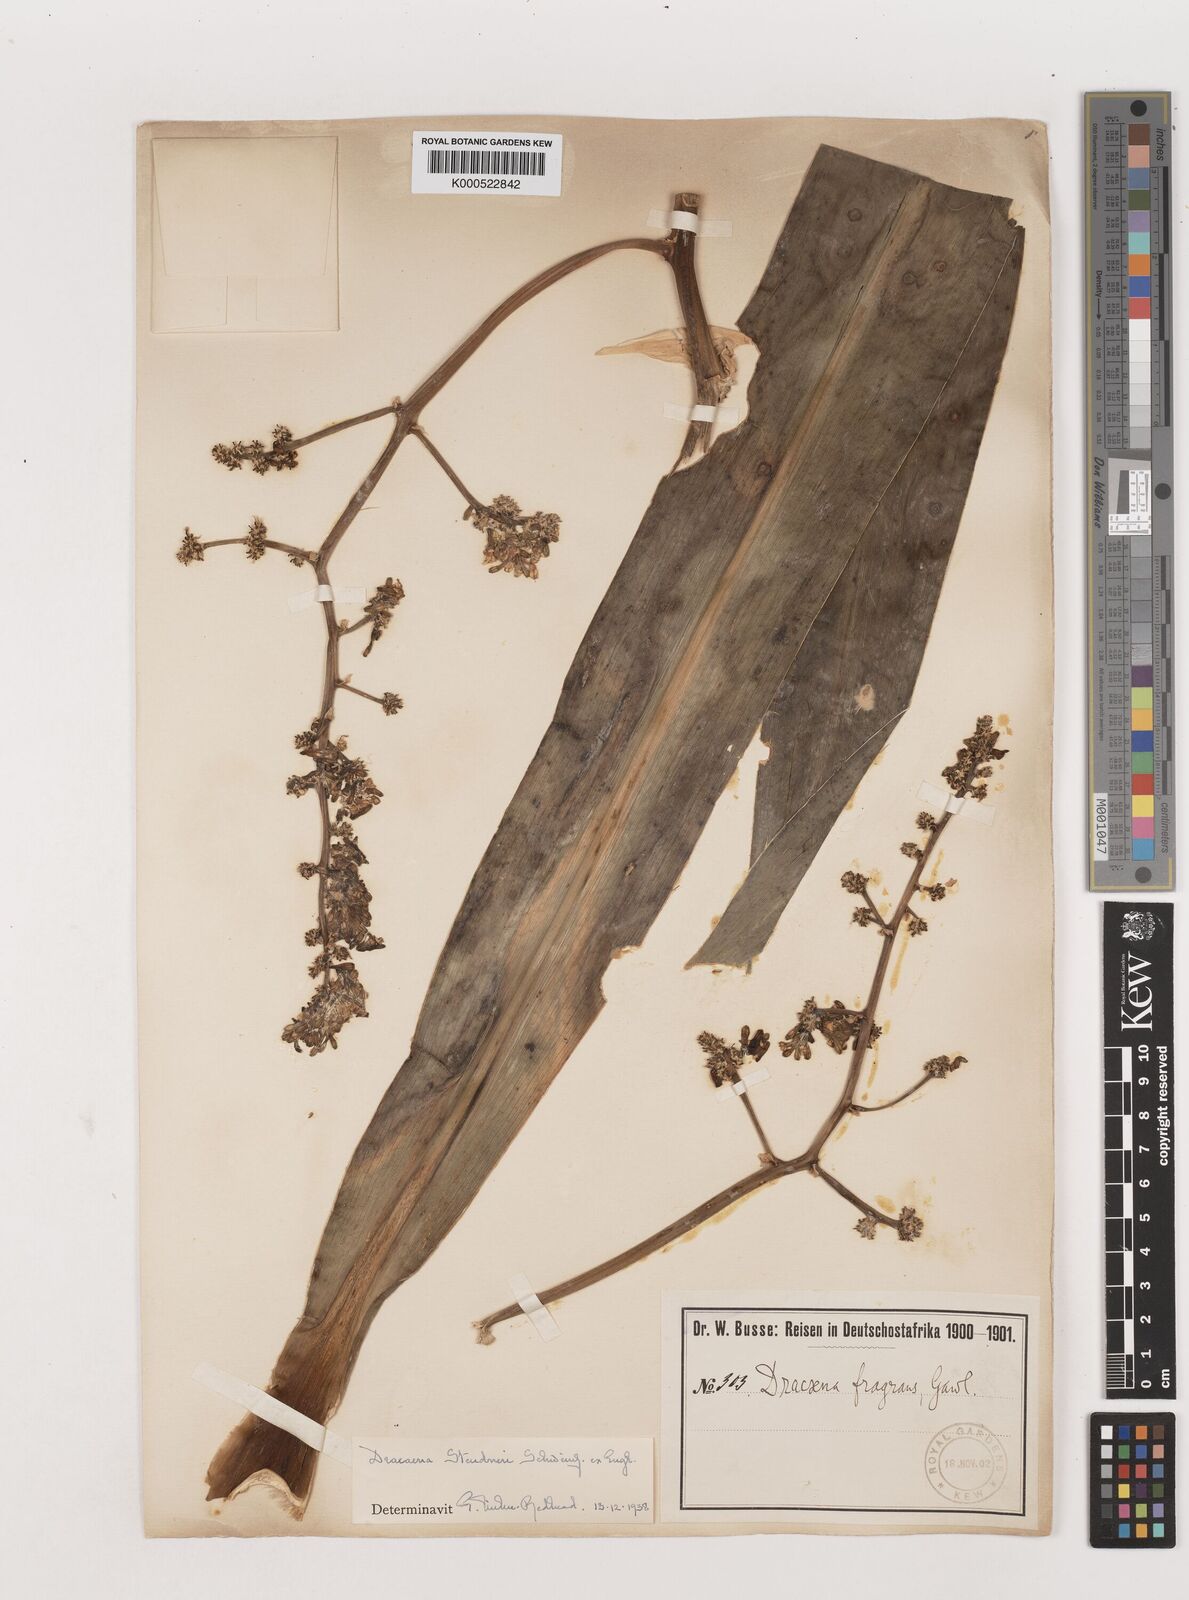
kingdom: Plantae
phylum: Tracheophyta
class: Liliopsida
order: Asparagales
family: Asparagaceae
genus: Dracaena
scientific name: Dracaena steudneri
